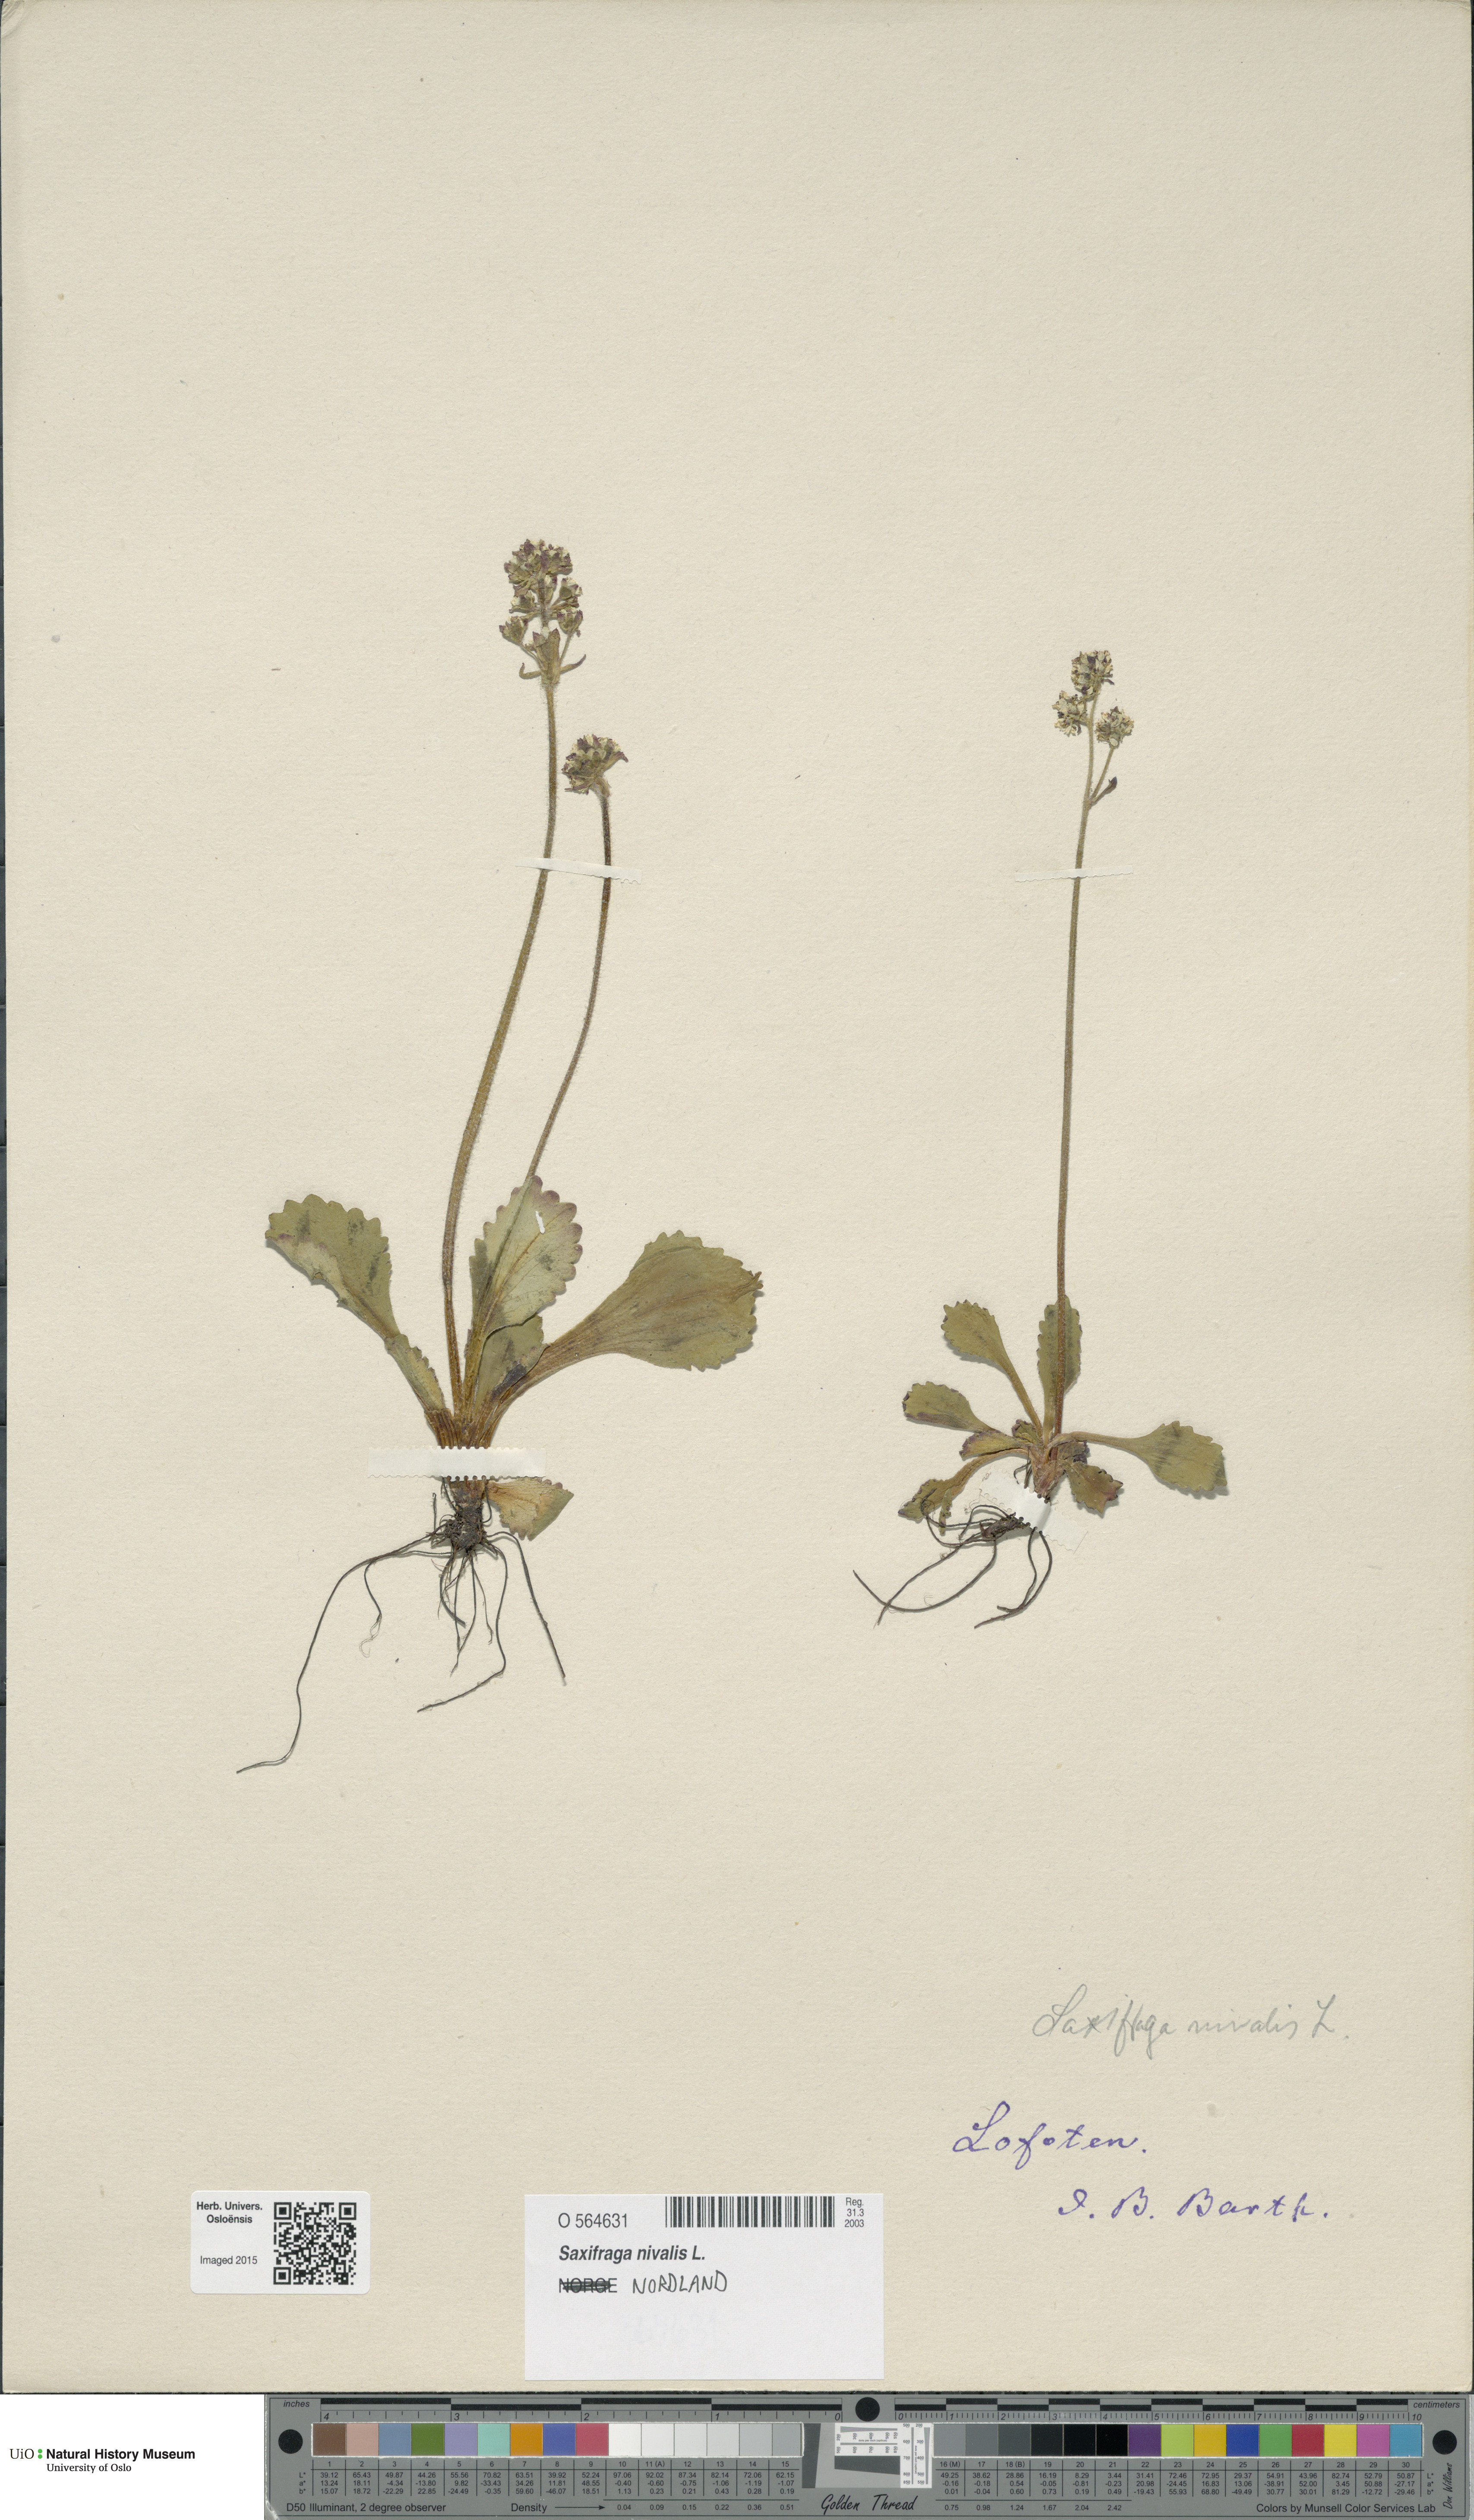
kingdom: Plantae
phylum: Tracheophyta
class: Magnoliopsida
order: Saxifragales
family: Saxifragaceae
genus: Micranthes
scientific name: Micranthes nivalis
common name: Alpine saxifrage
